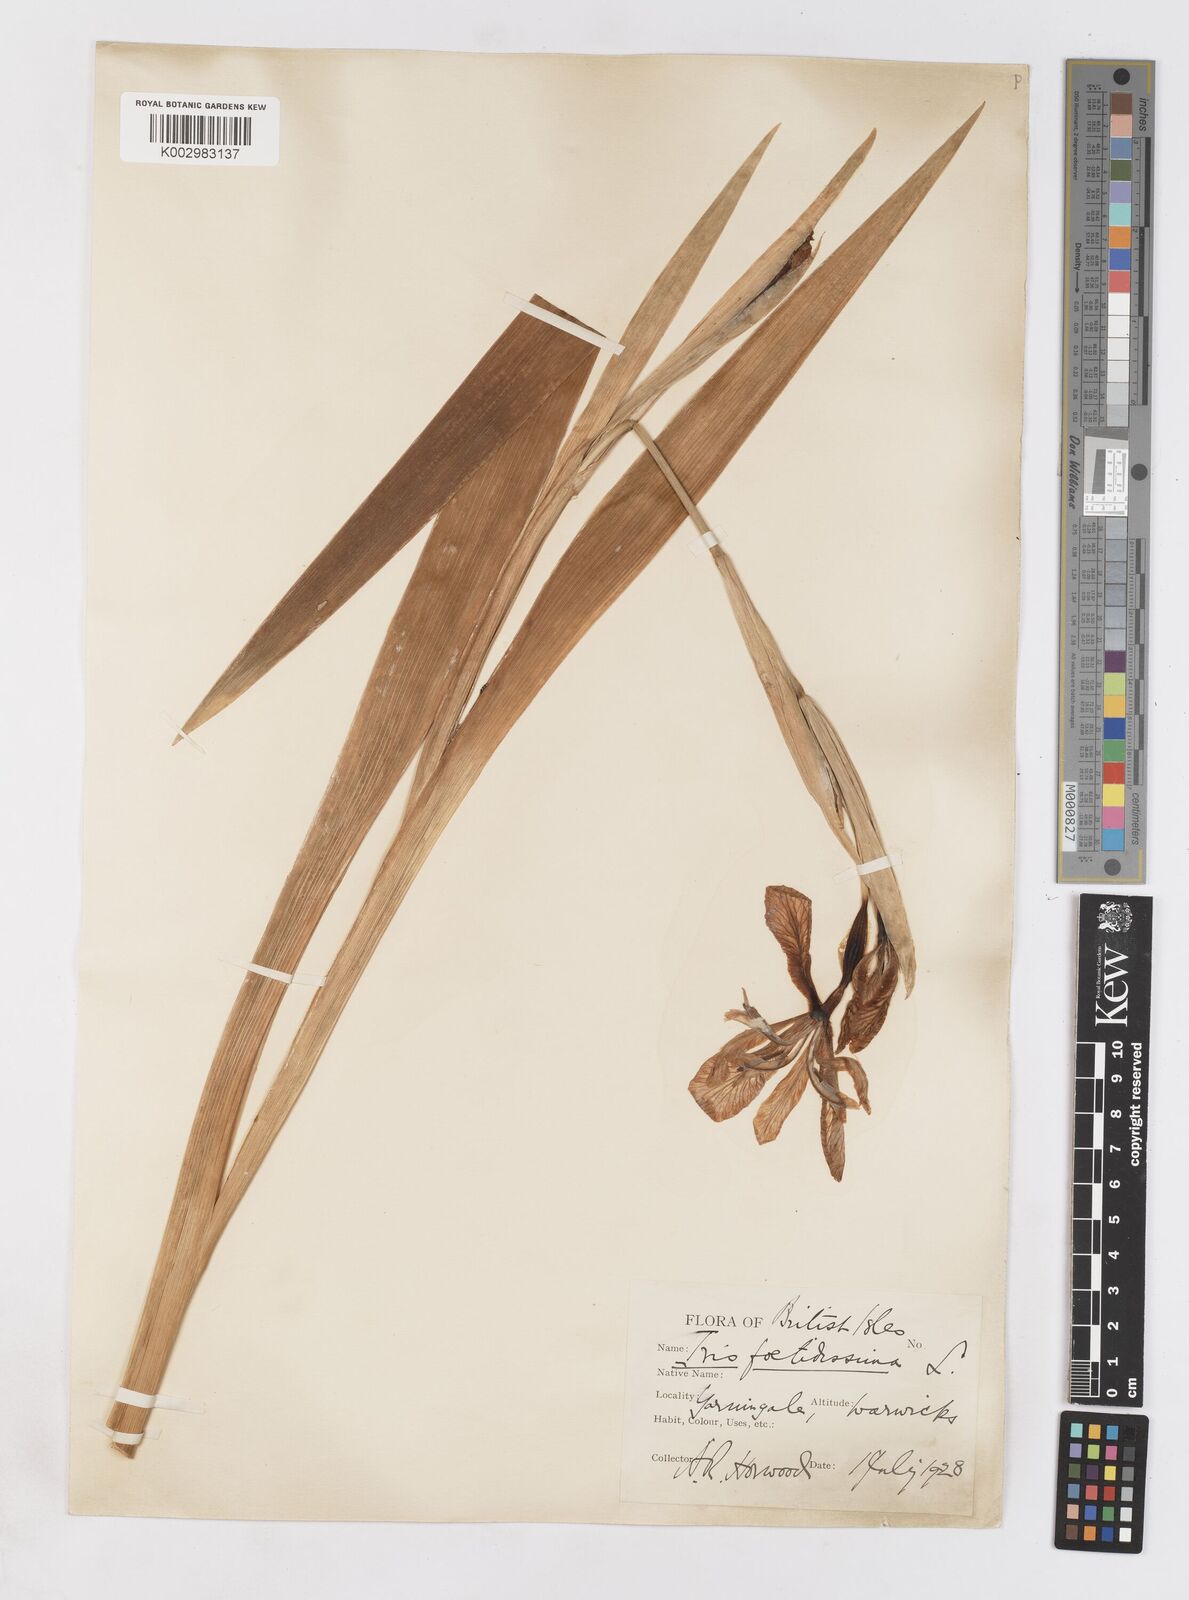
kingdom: Plantae
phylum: Tracheophyta
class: Liliopsida
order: Asparagales
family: Iridaceae
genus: Iris
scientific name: Iris foetidissima
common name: Stinking iris
